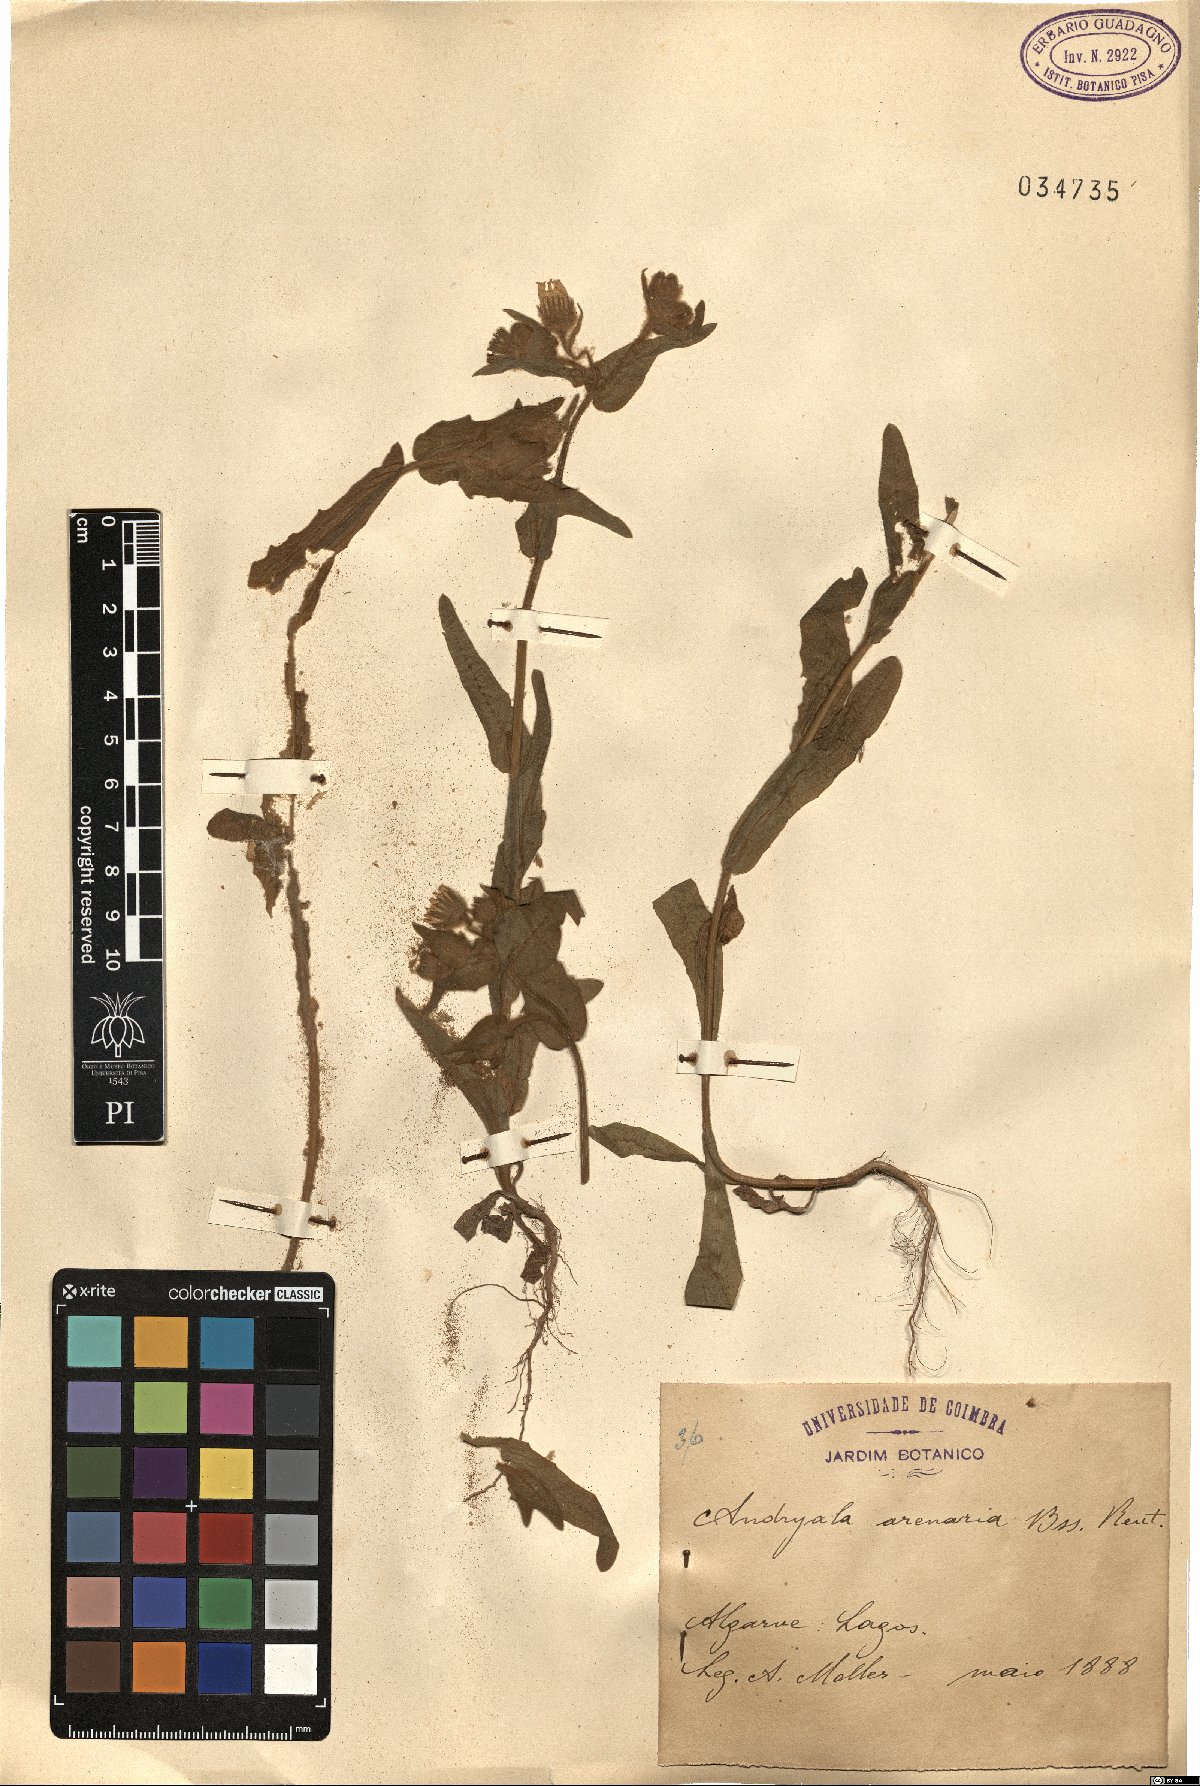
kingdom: Plantae
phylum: Tracheophyta
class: Magnoliopsida
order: Asterales
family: Asteraceae
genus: Andryala
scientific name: Andryala arenaria
